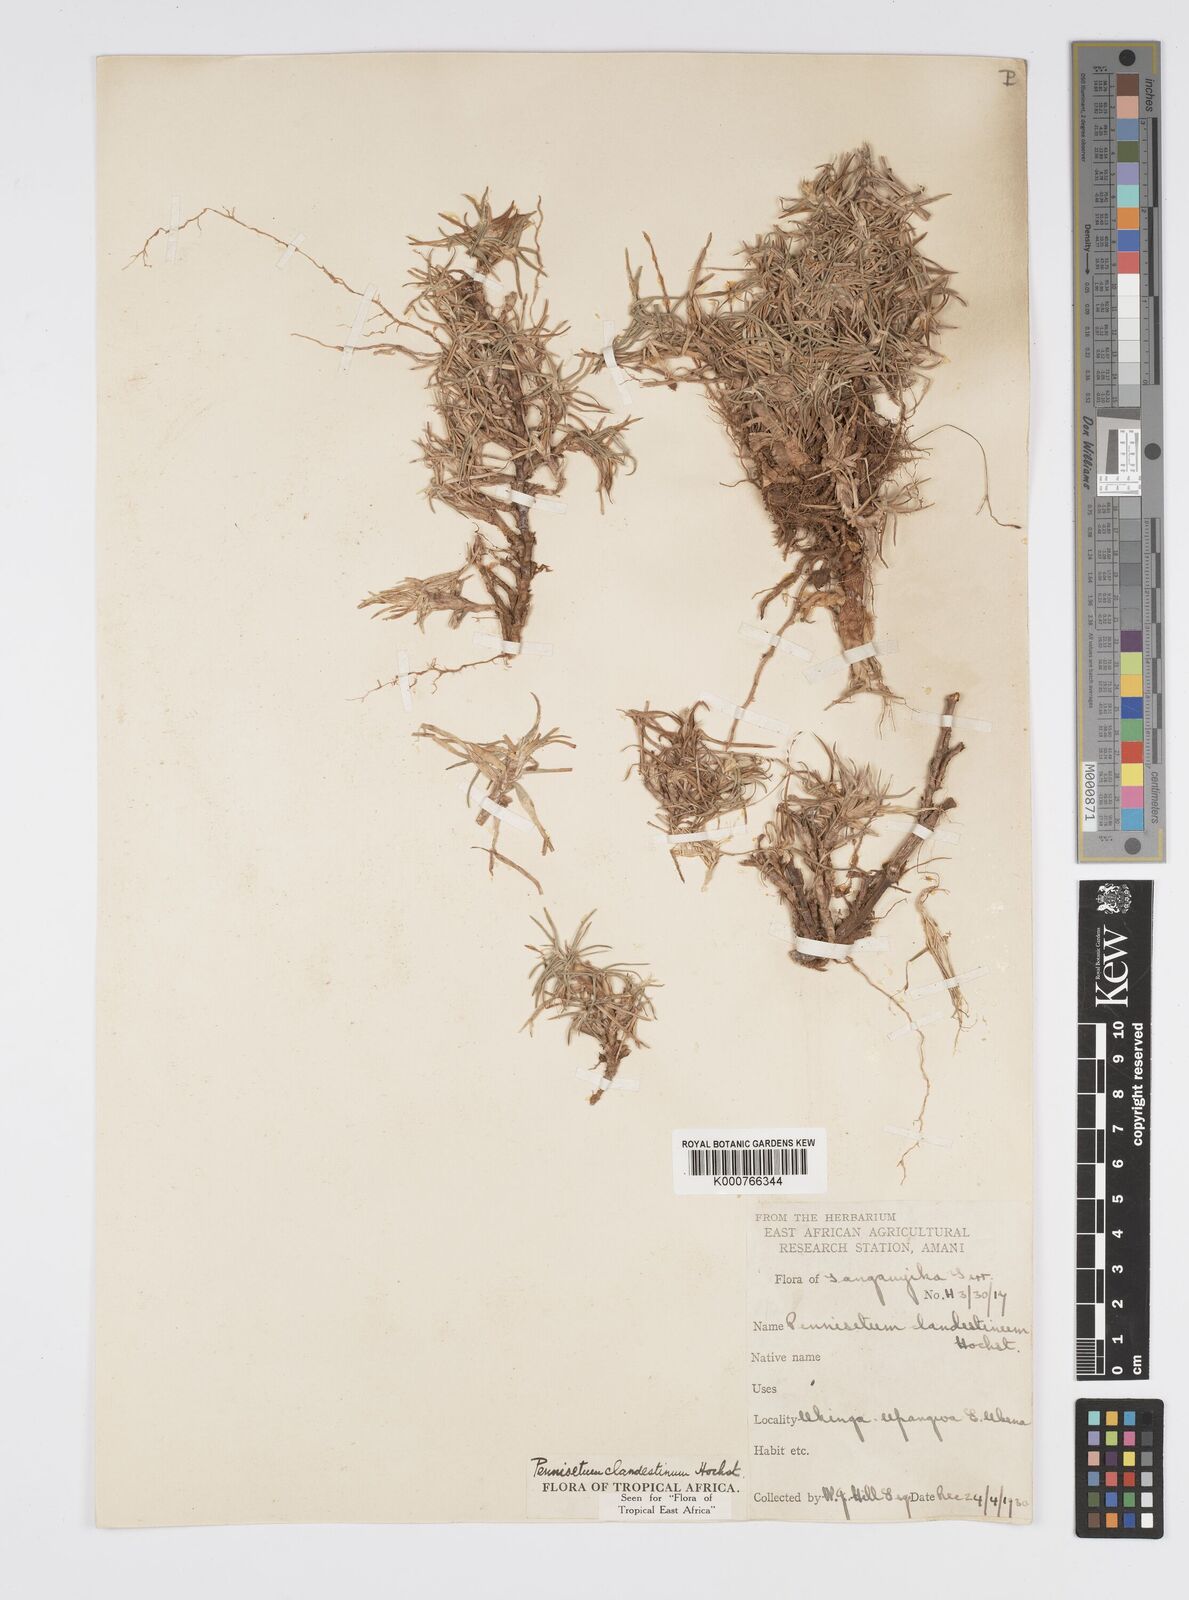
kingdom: Plantae
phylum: Tracheophyta
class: Liliopsida
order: Poales
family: Poaceae
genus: Cenchrus
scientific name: Cenchrus clandestinus
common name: Kikuyugrass
